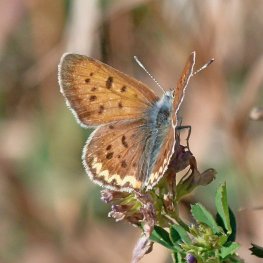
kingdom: Animalia
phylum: Arthropoda
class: Insecta
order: Lepidoptera
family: Sesiidae
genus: Sesia
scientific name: Sesia Lycaena helloides
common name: Purplish Copper
